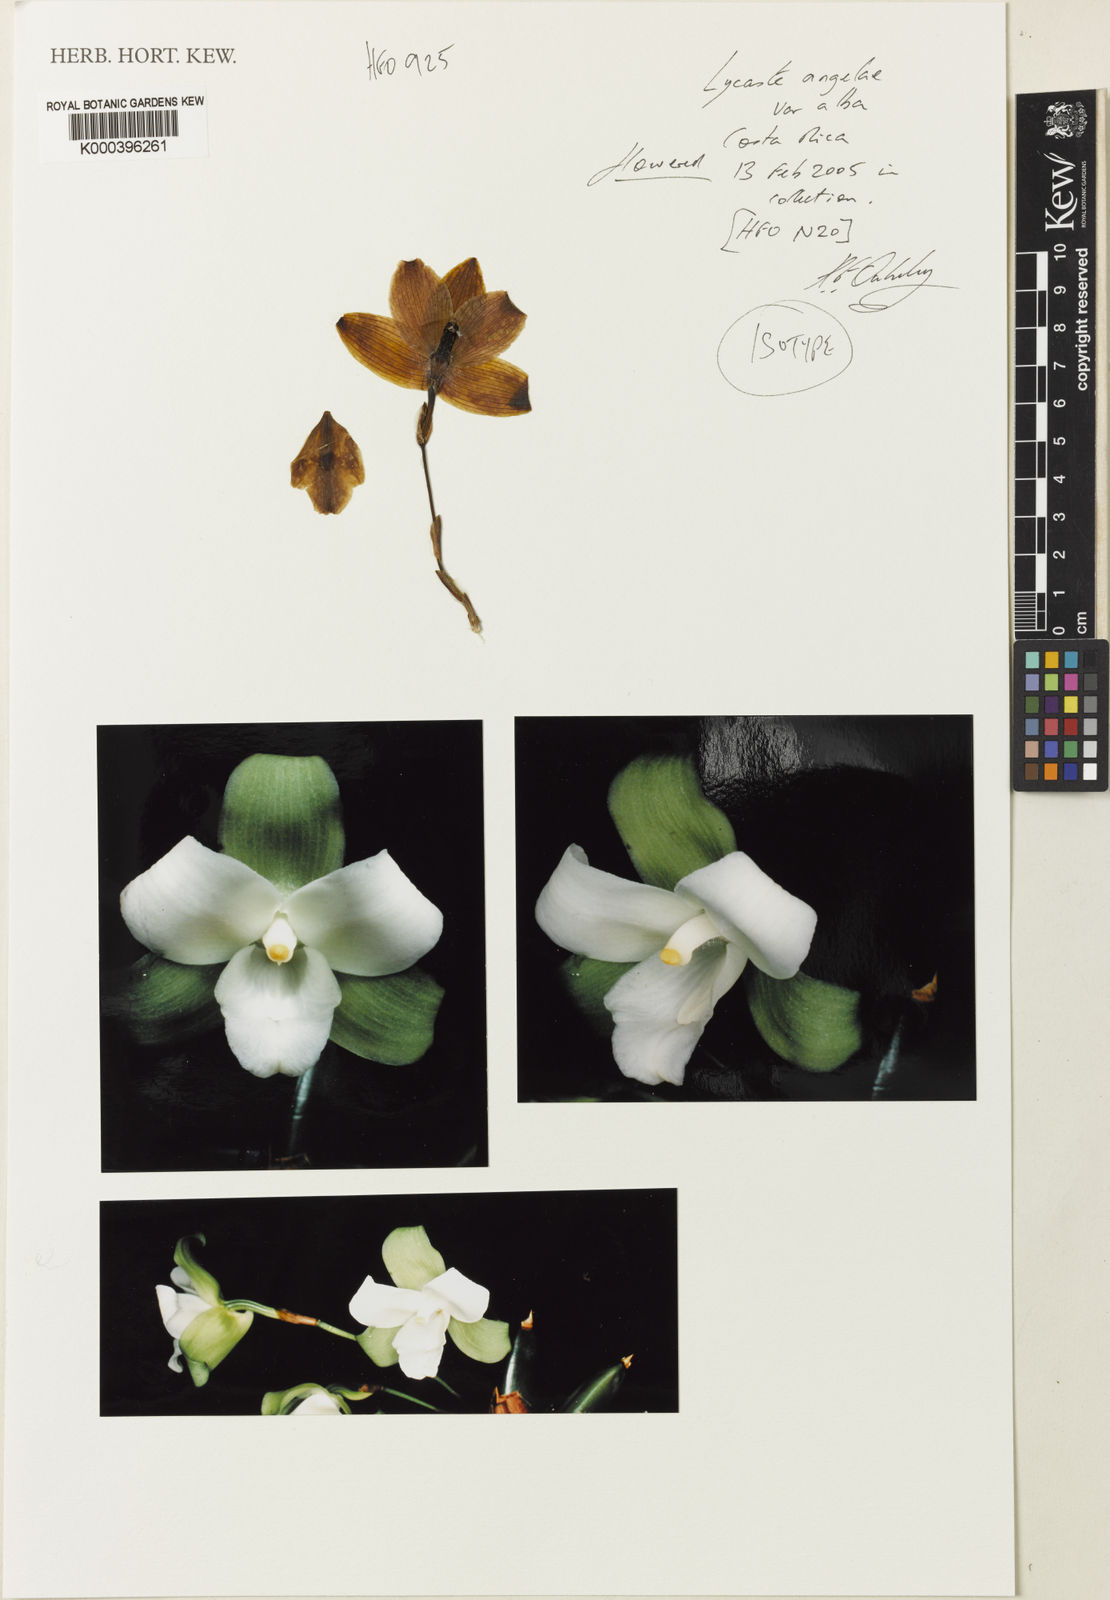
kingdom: Plantae
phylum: Tracheophyta
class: Liliopsida
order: Asparagales
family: Orchidaceae
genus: Lycaste
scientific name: Lycaste angelae
